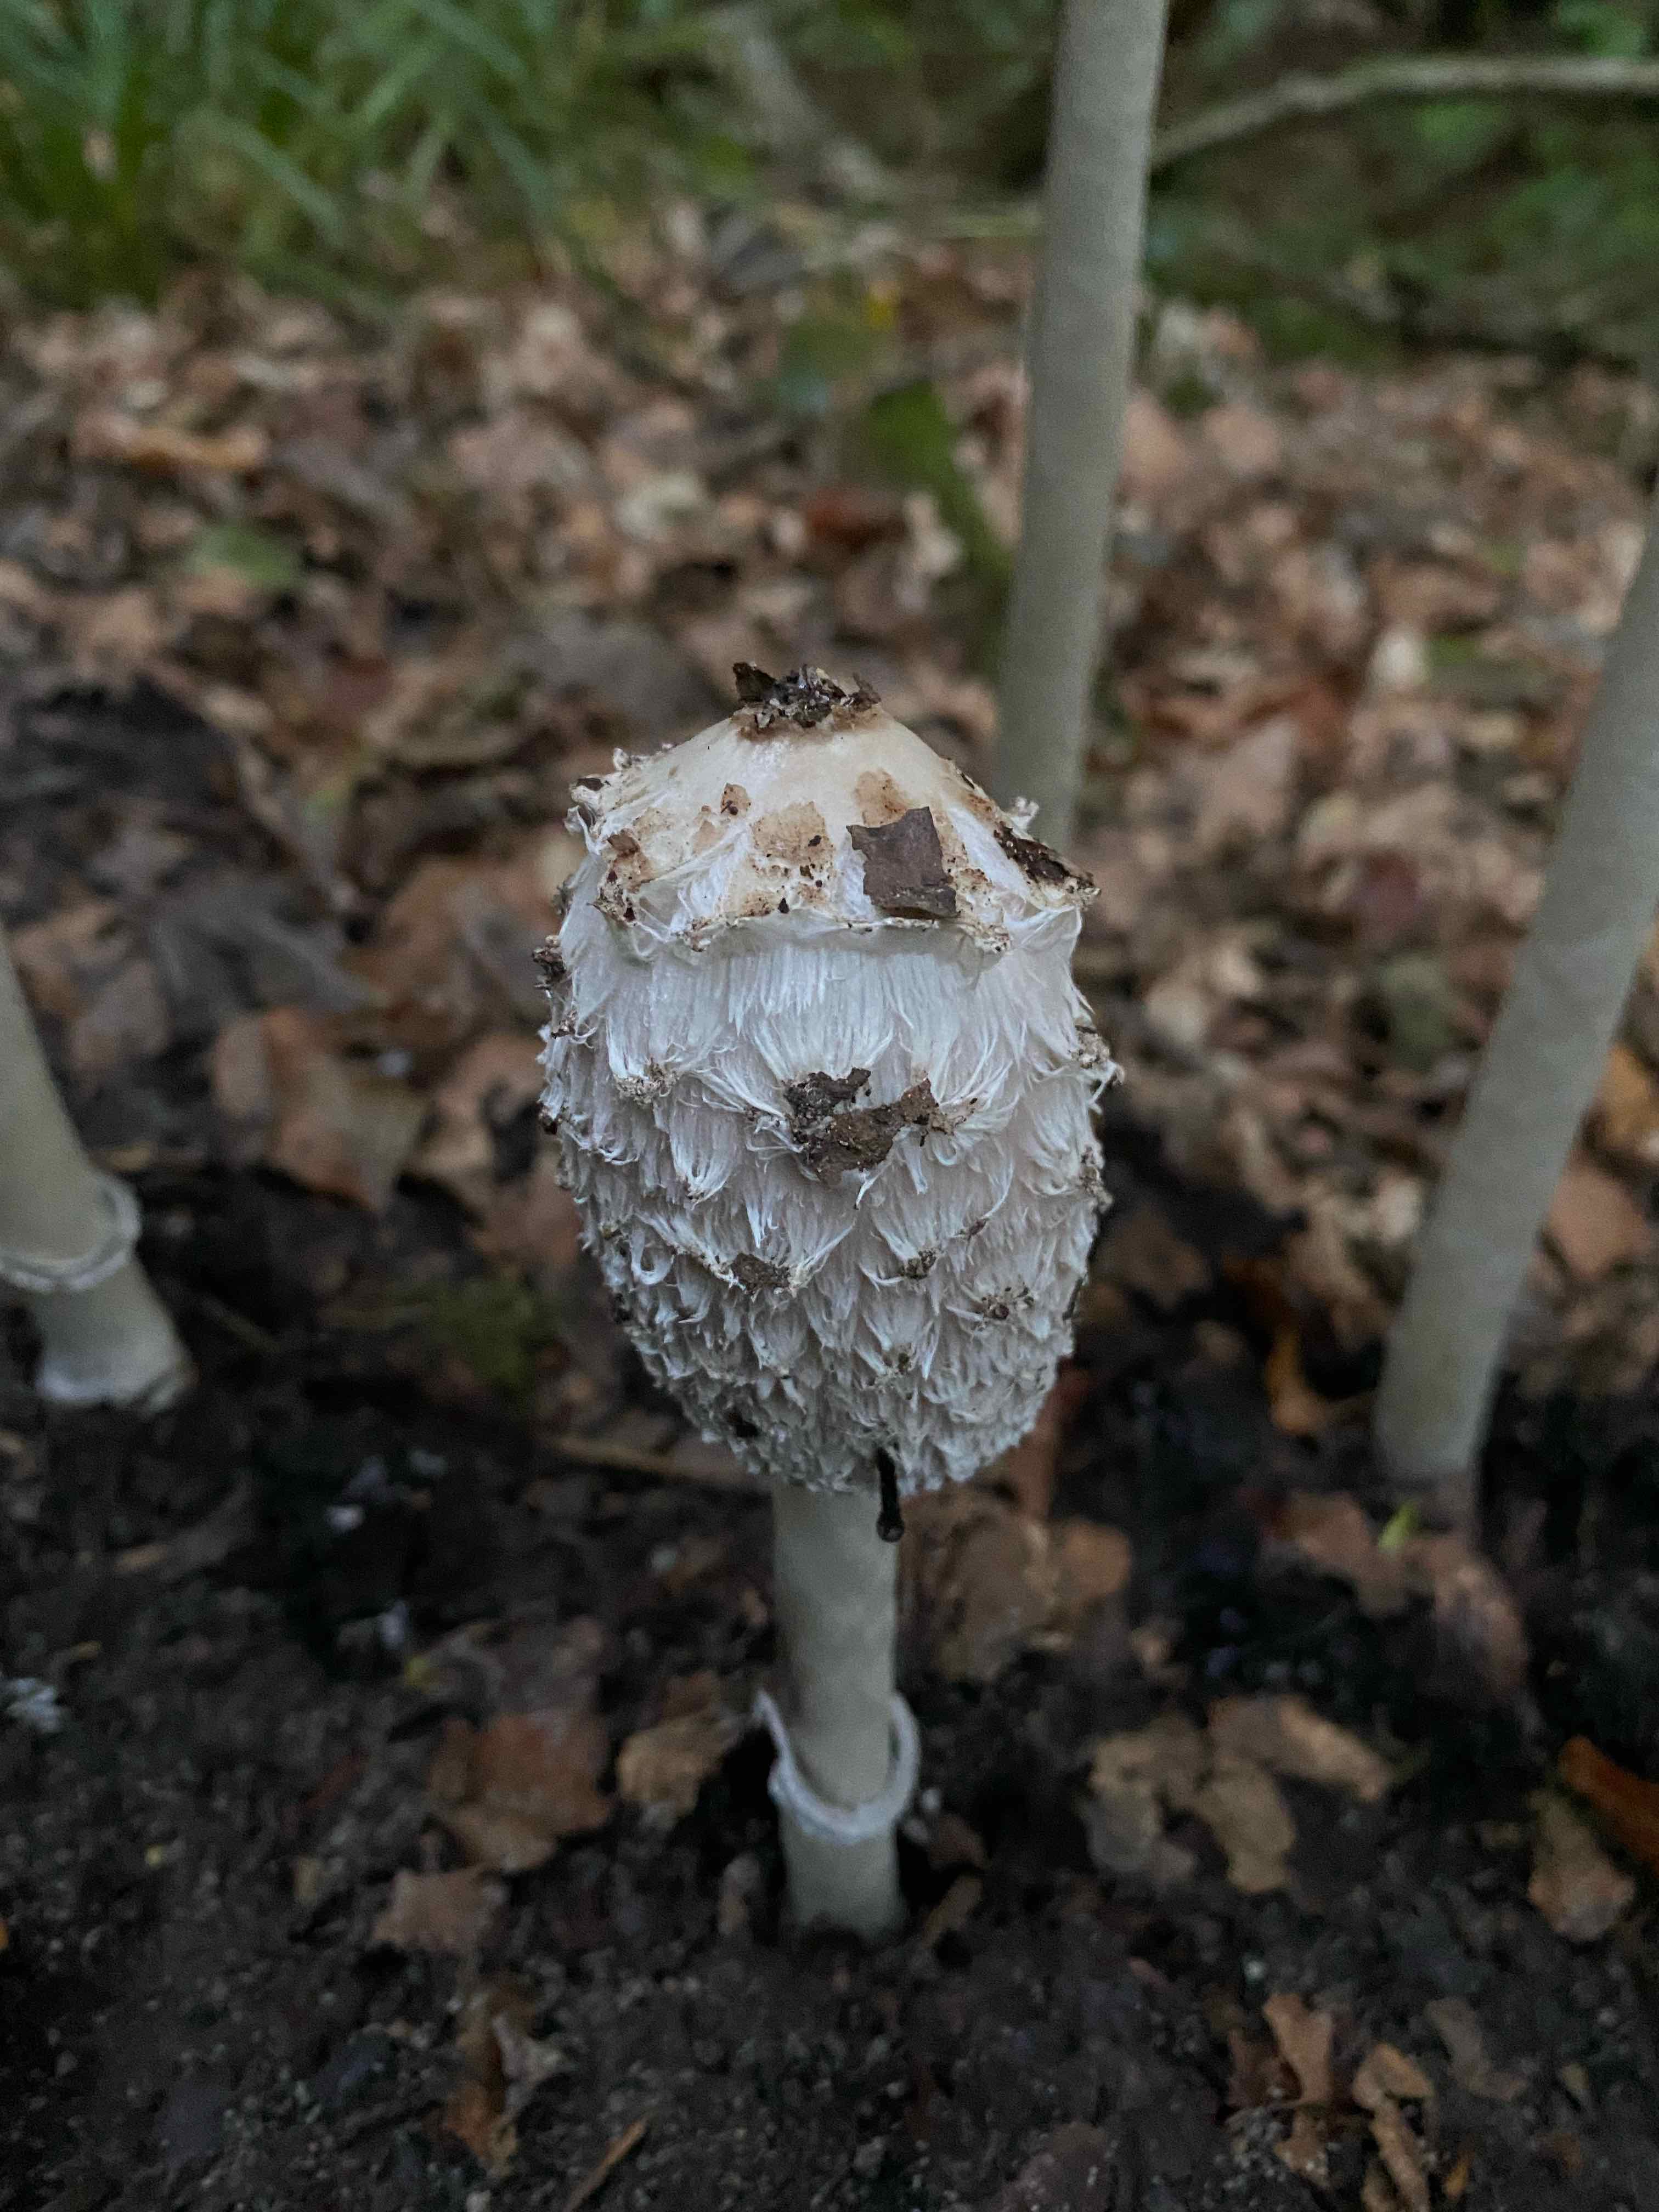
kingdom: Fungi
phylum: Basidiomycota
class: Agaricomycetes
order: Agaricales
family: Agaricaceae
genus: Coprinus
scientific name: Coprinus comatus
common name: stor parykhat
